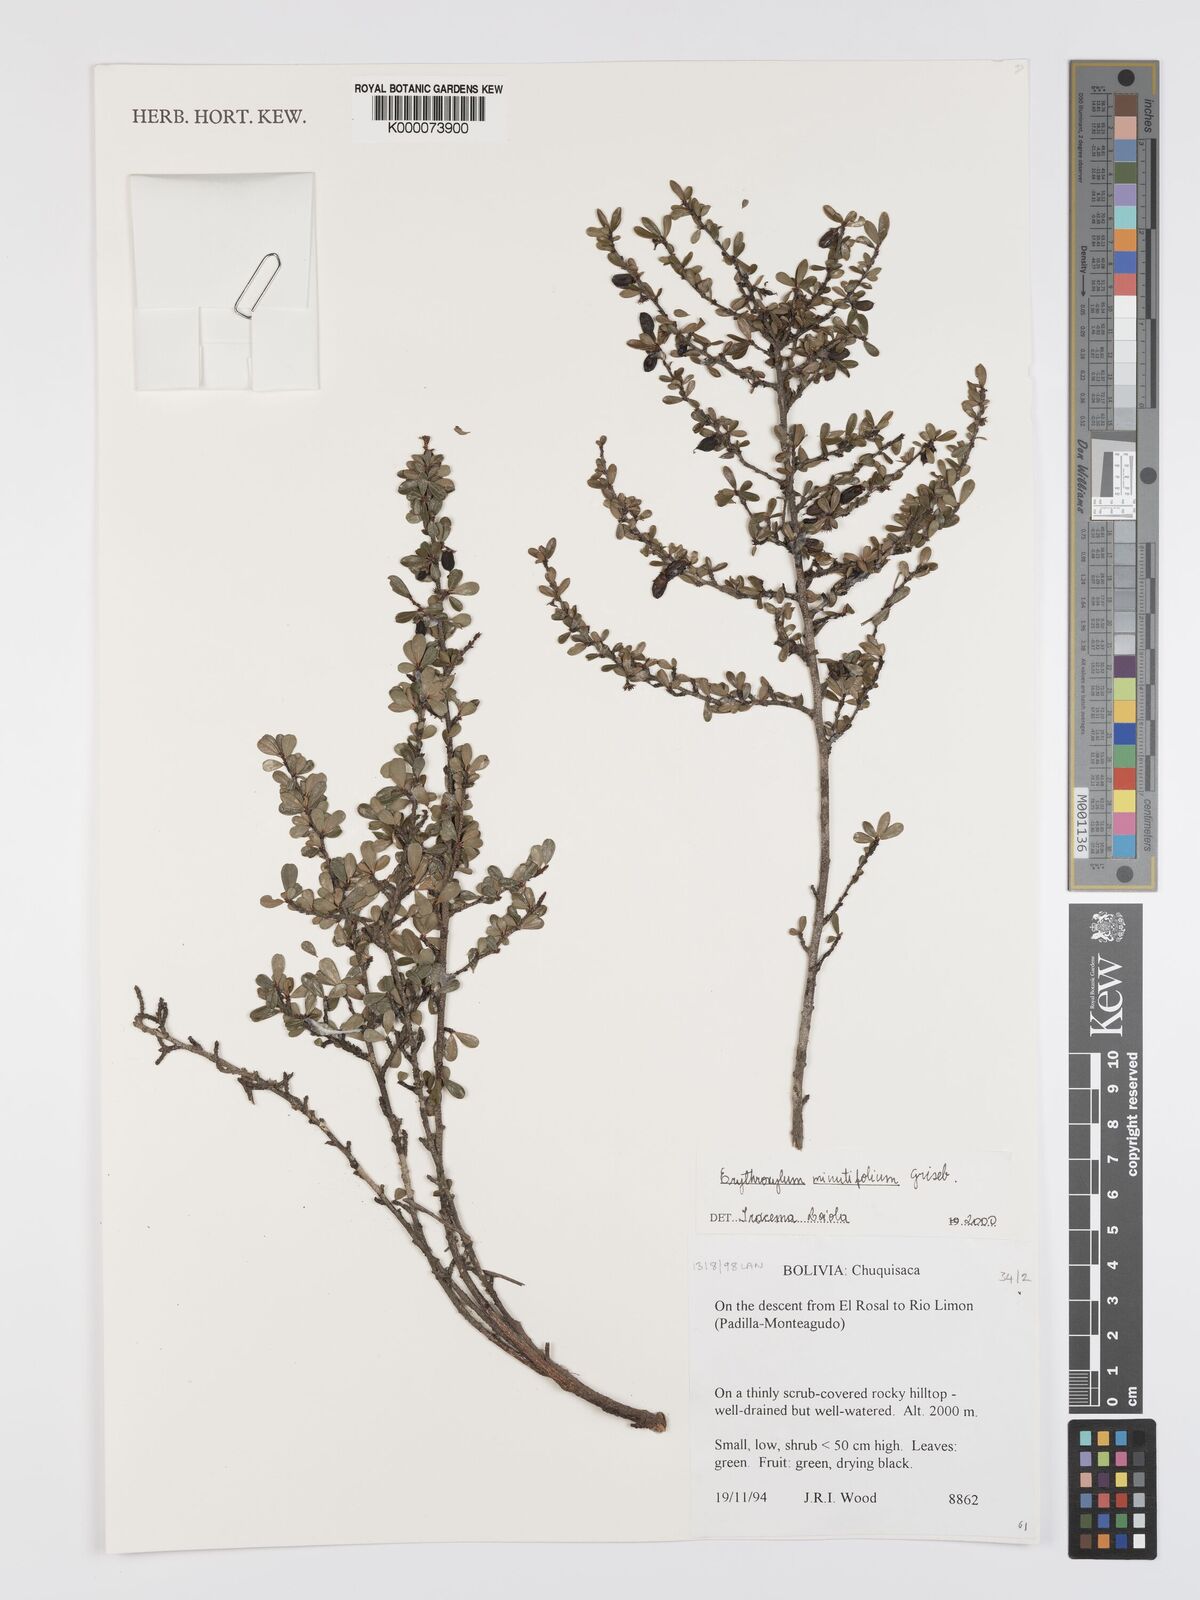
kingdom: Plantae
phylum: Tracheophyta
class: Magnoliopsida
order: Malpighiales
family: Erythroxylaceae
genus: Erythroxylum
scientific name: Erythroxylum minutifolium
